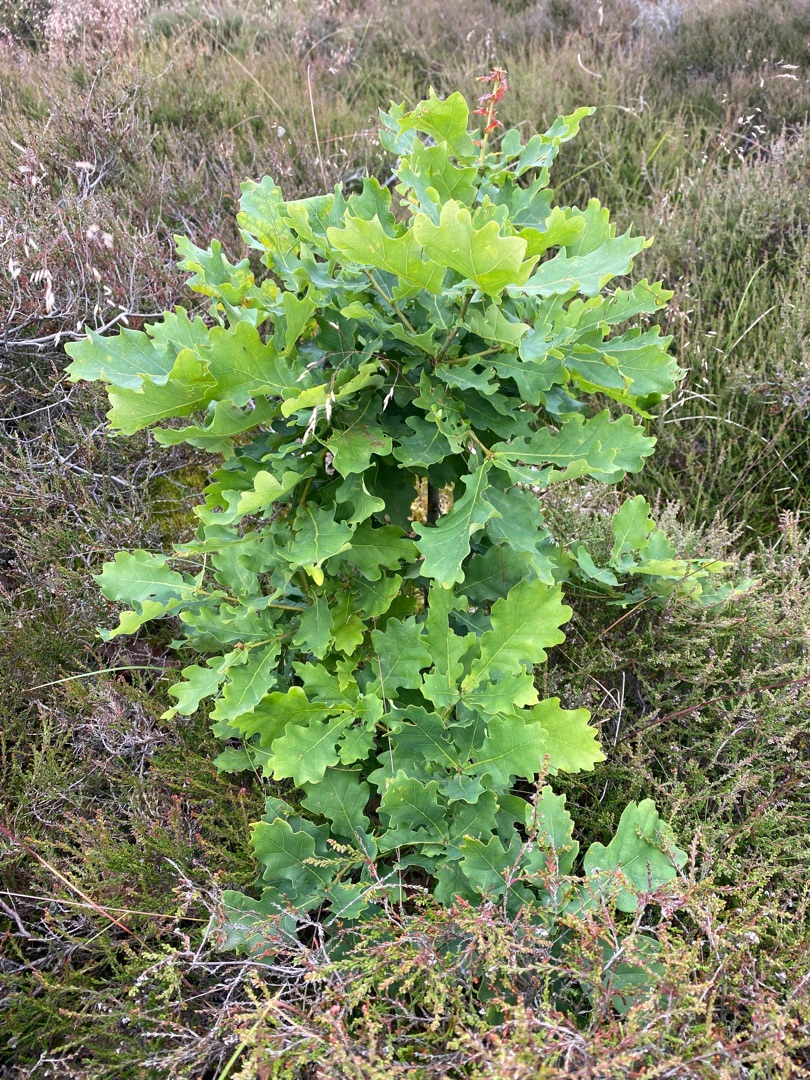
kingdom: Plantae
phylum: Tracheophyta
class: Magnoliopsida
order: Fagales
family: Fagaceae
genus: Quercus
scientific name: Quercus robur
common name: Stilk-eg/almindelig eg
